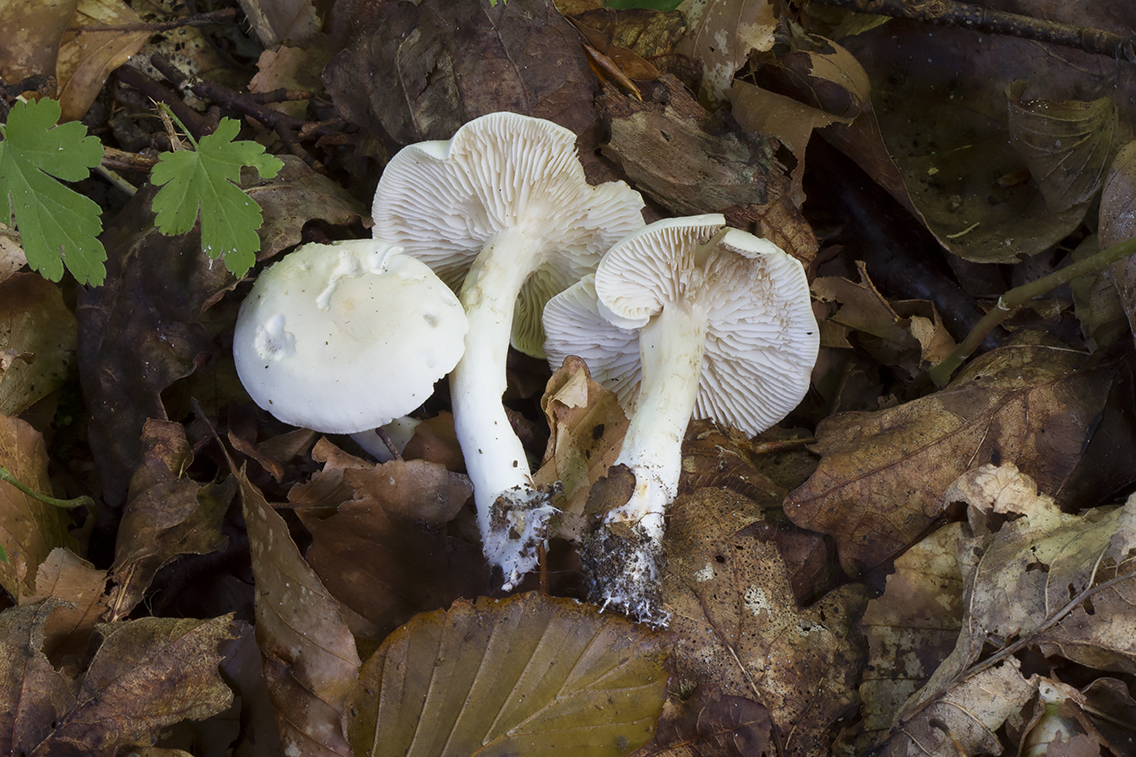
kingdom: Fungi
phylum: Basidiomycota
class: Agaricomycetes
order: Agaricales
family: Tricholomataceae
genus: Tricholoma
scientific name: Tricholoma album
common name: honning-ridderhat
